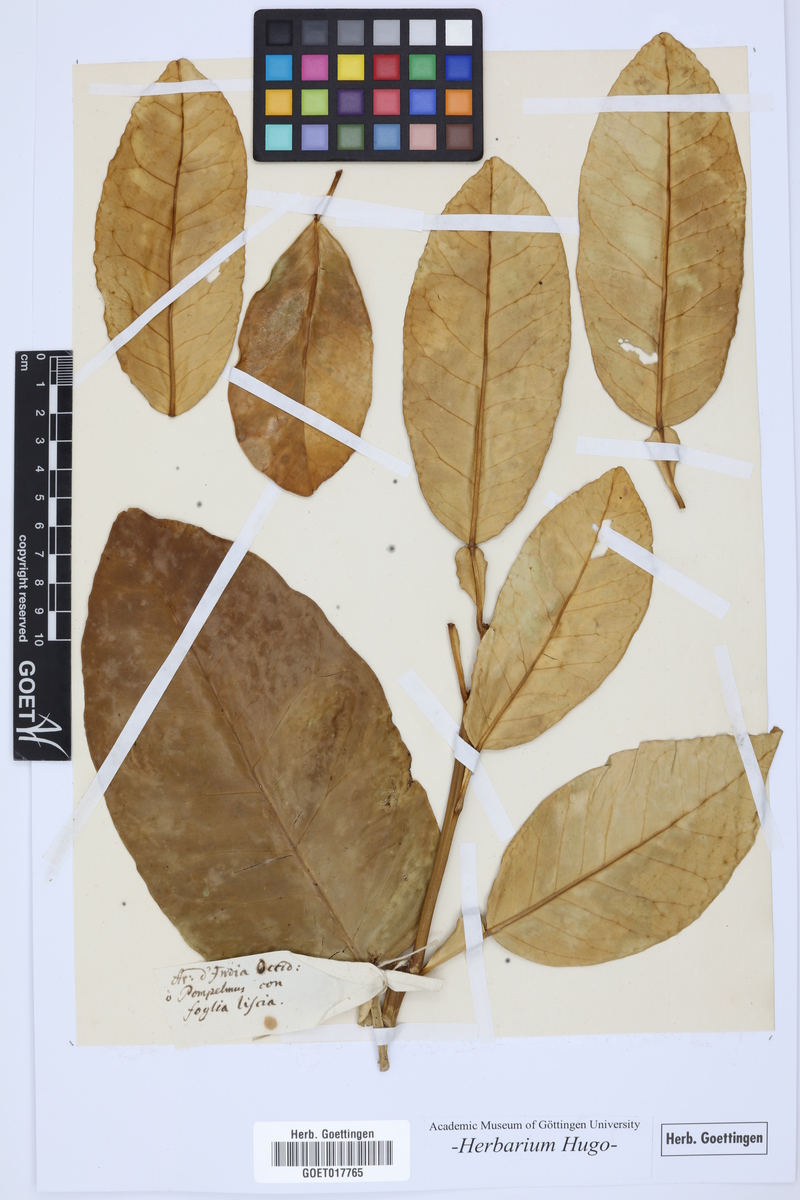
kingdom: Plantae
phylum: Tracheophyta
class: Magnoliopsida
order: Sapindales
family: Rutaceae
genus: Citrus
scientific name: Citrus
